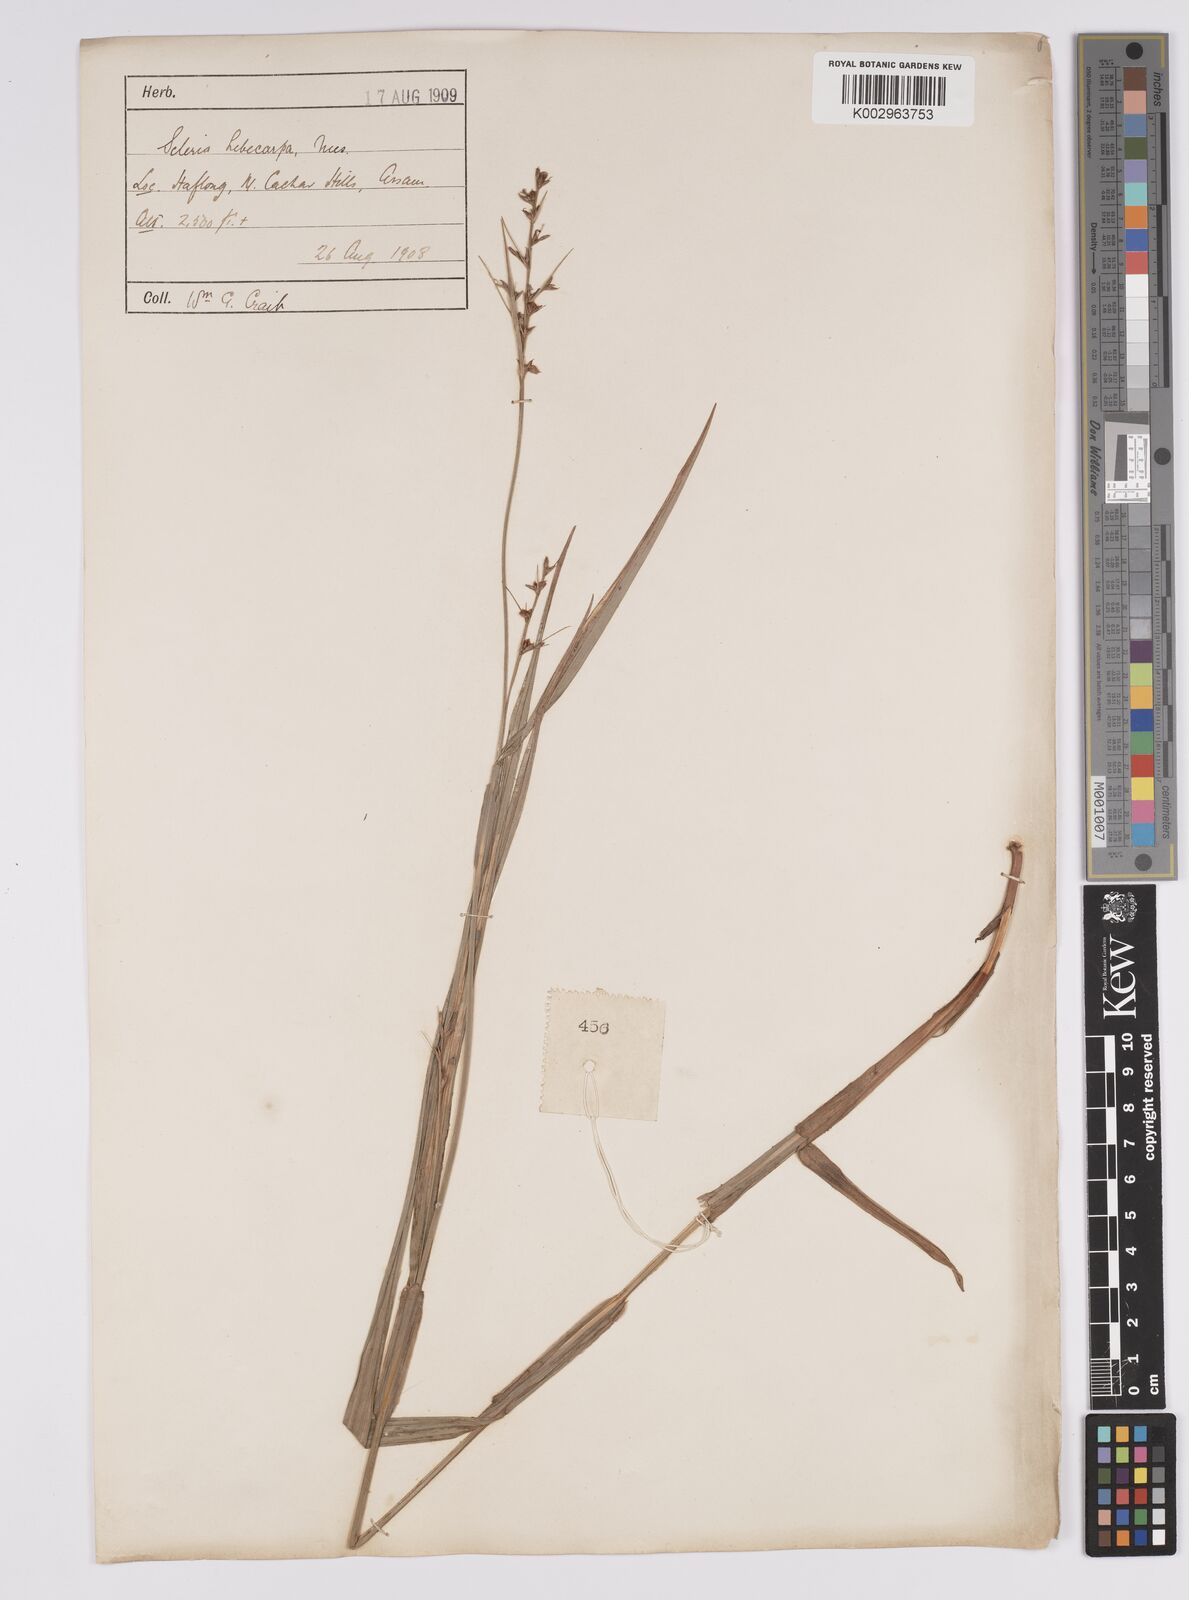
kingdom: Plantae
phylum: Tracheophyta
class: Liliopsida
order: Poales
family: Cyperaceae
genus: Scleria
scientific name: Scleria levis
